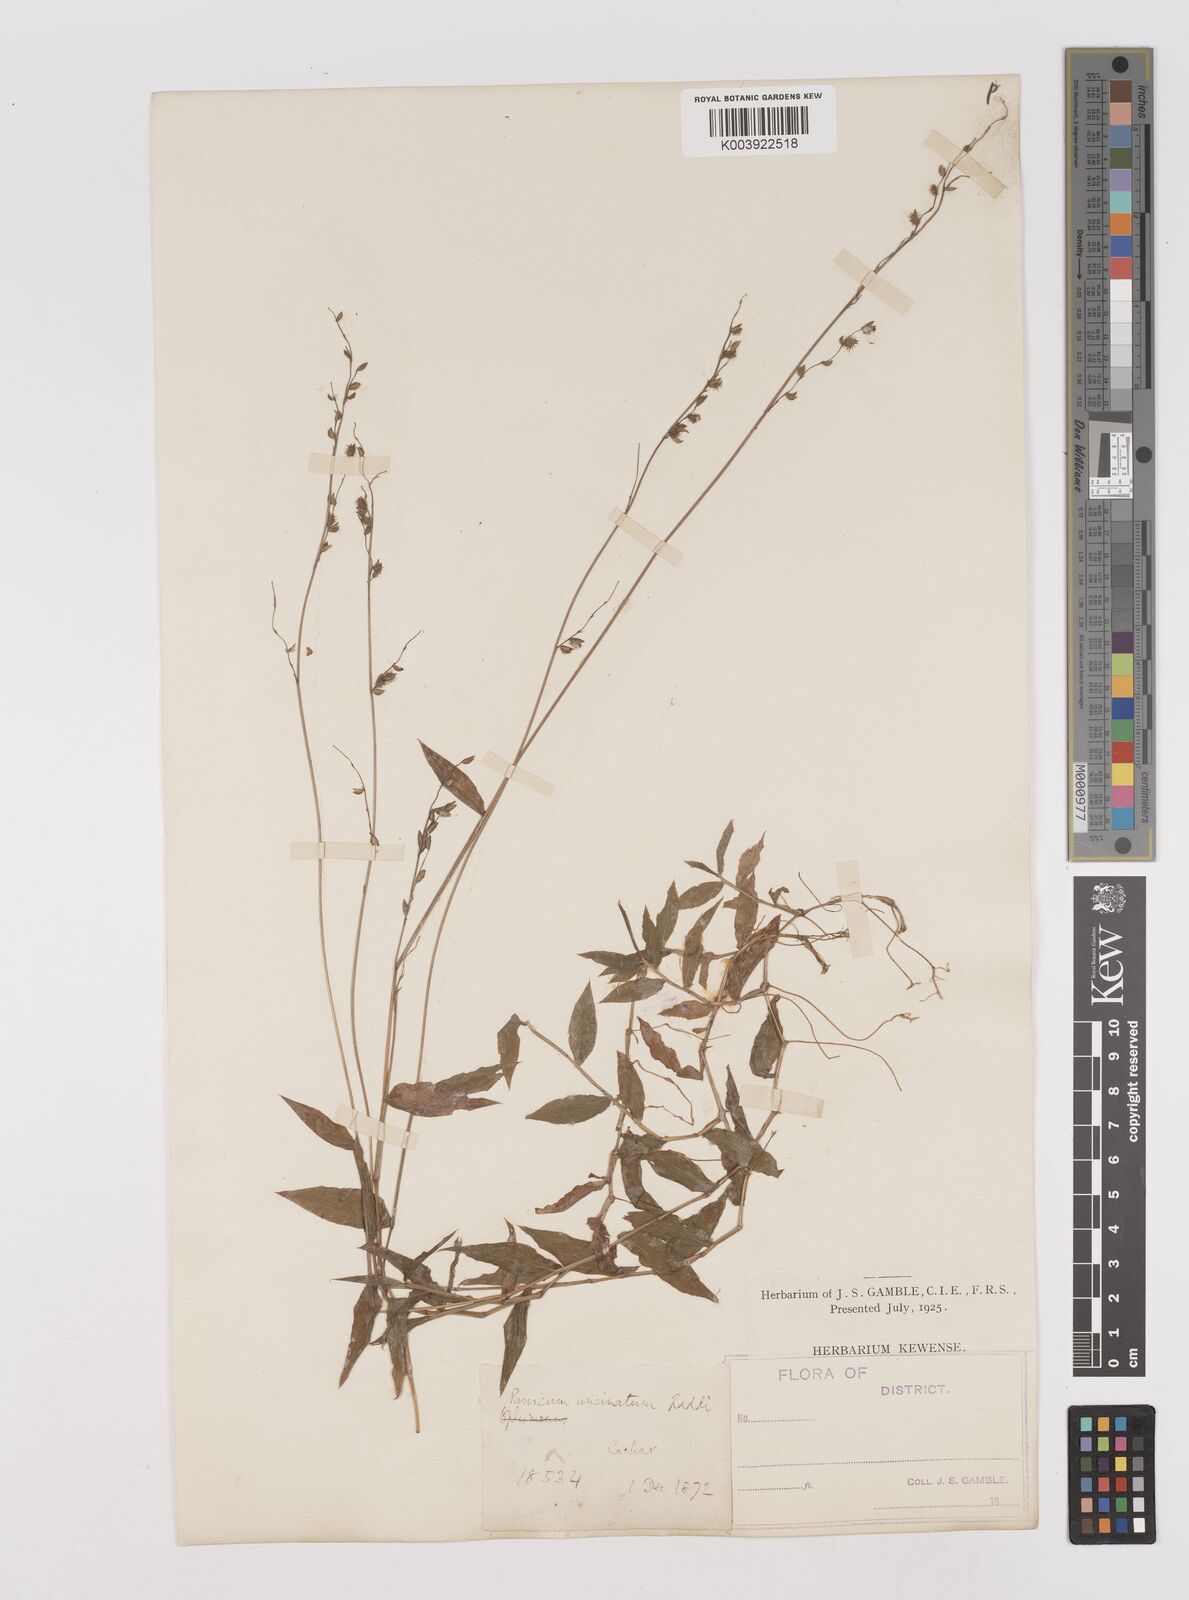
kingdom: Plantae
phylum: Tracheophyta
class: Liliopsida
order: Poales
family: Poaceae
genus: Pseudechinolaena
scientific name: Pseudechinolaena polystachya
